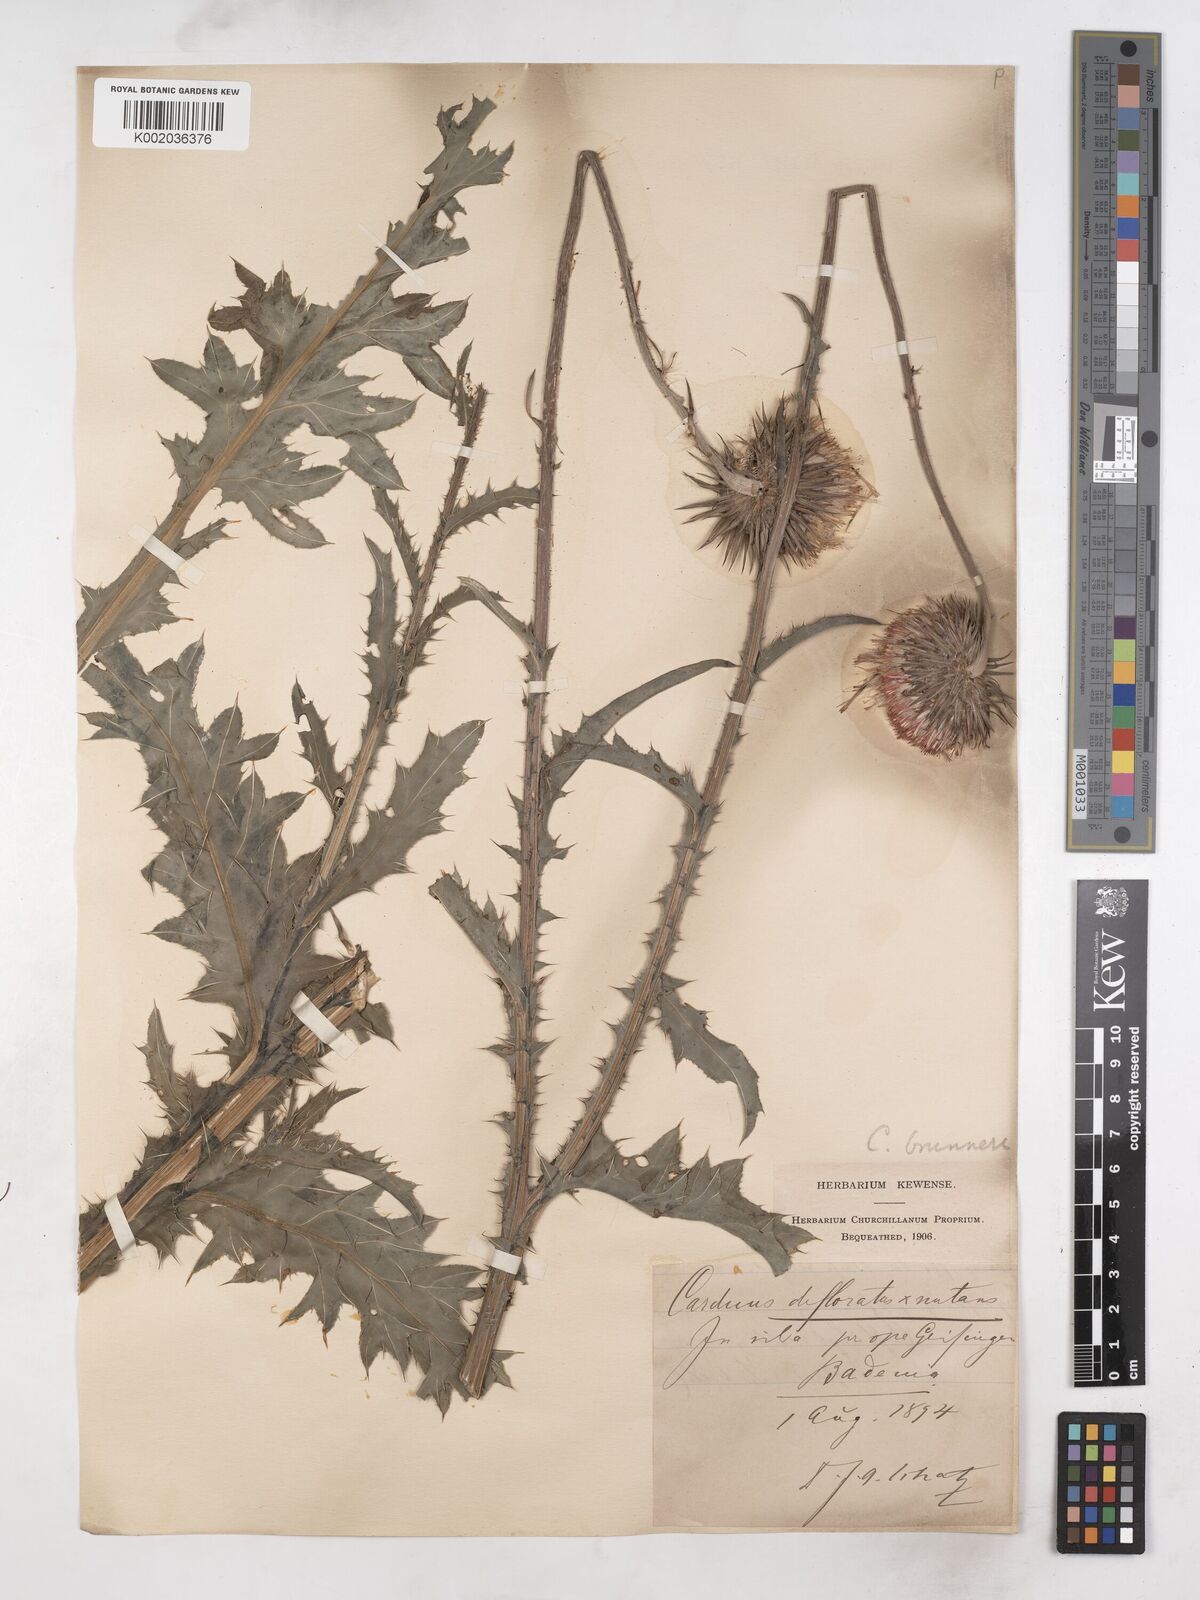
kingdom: Plantae
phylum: Tracheophyta
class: Magnoliopsida
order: Asterales
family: Asteraceae
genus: Carduus
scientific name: Carduus defloratus
